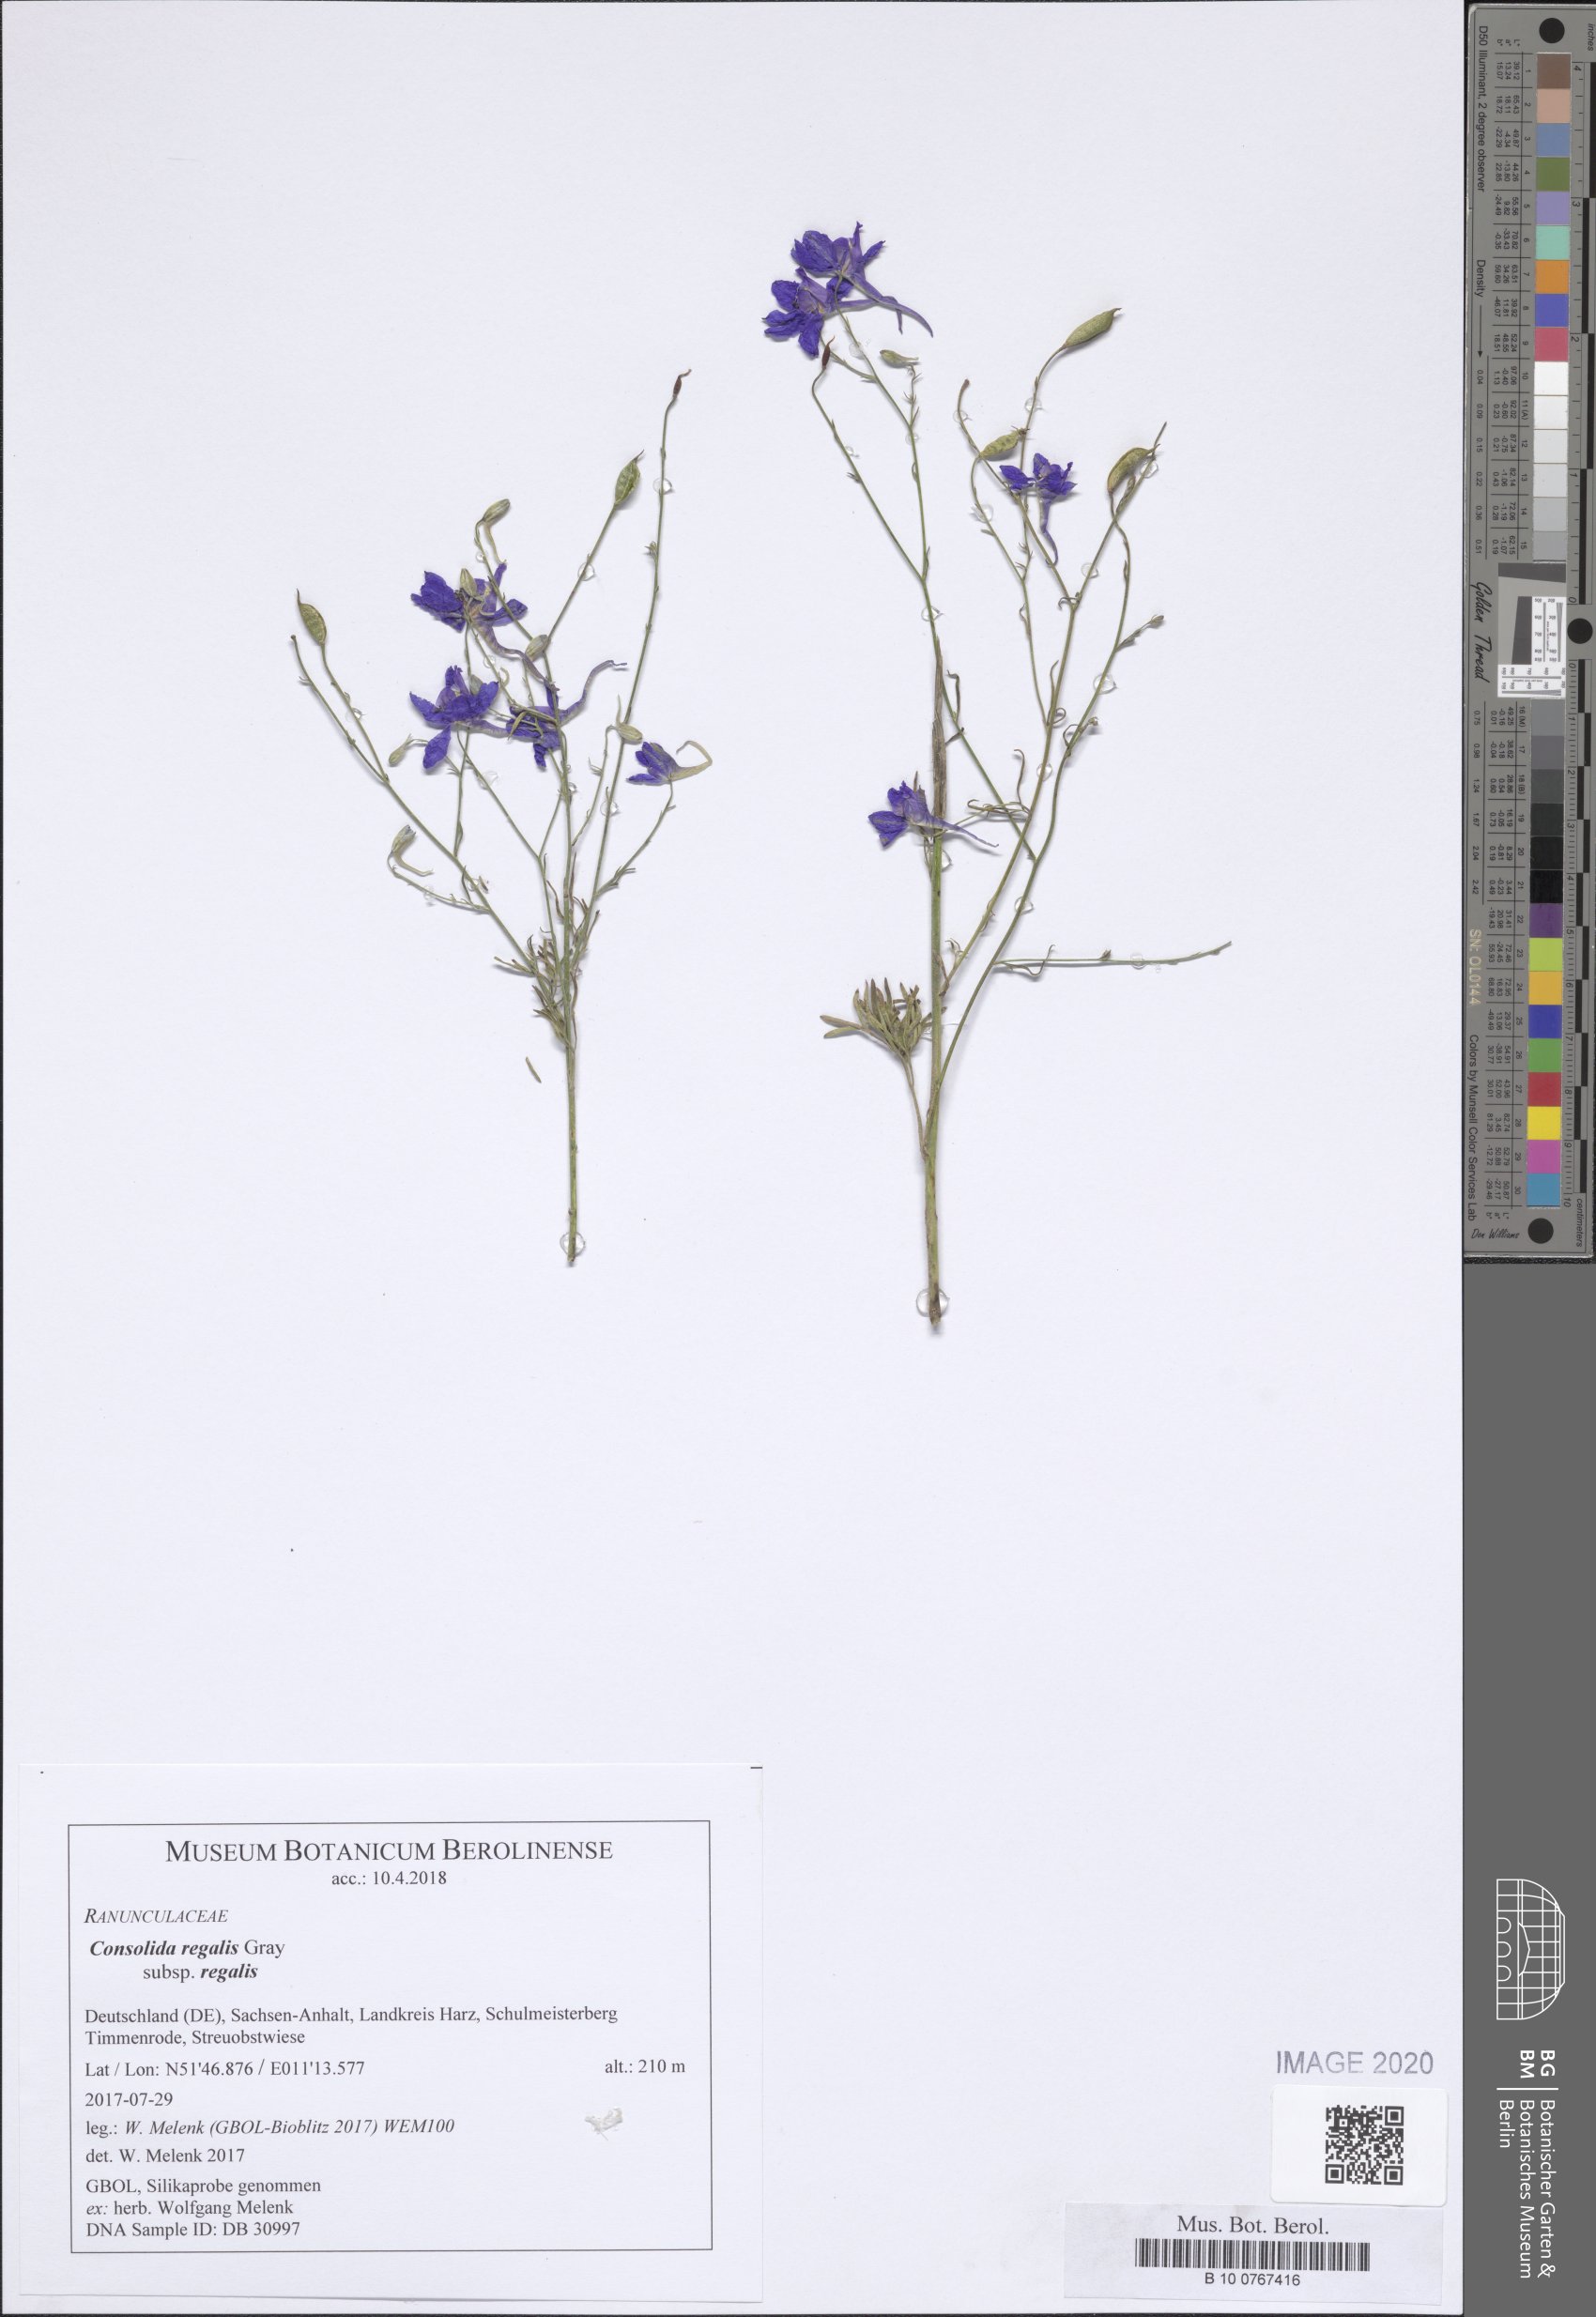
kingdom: Plantae
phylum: Tracheophyta
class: Magnoliopsida
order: Ranunculales
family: Ranunculaceae
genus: Delphinium
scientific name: Delphinium consolida
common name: Branching larkspur
